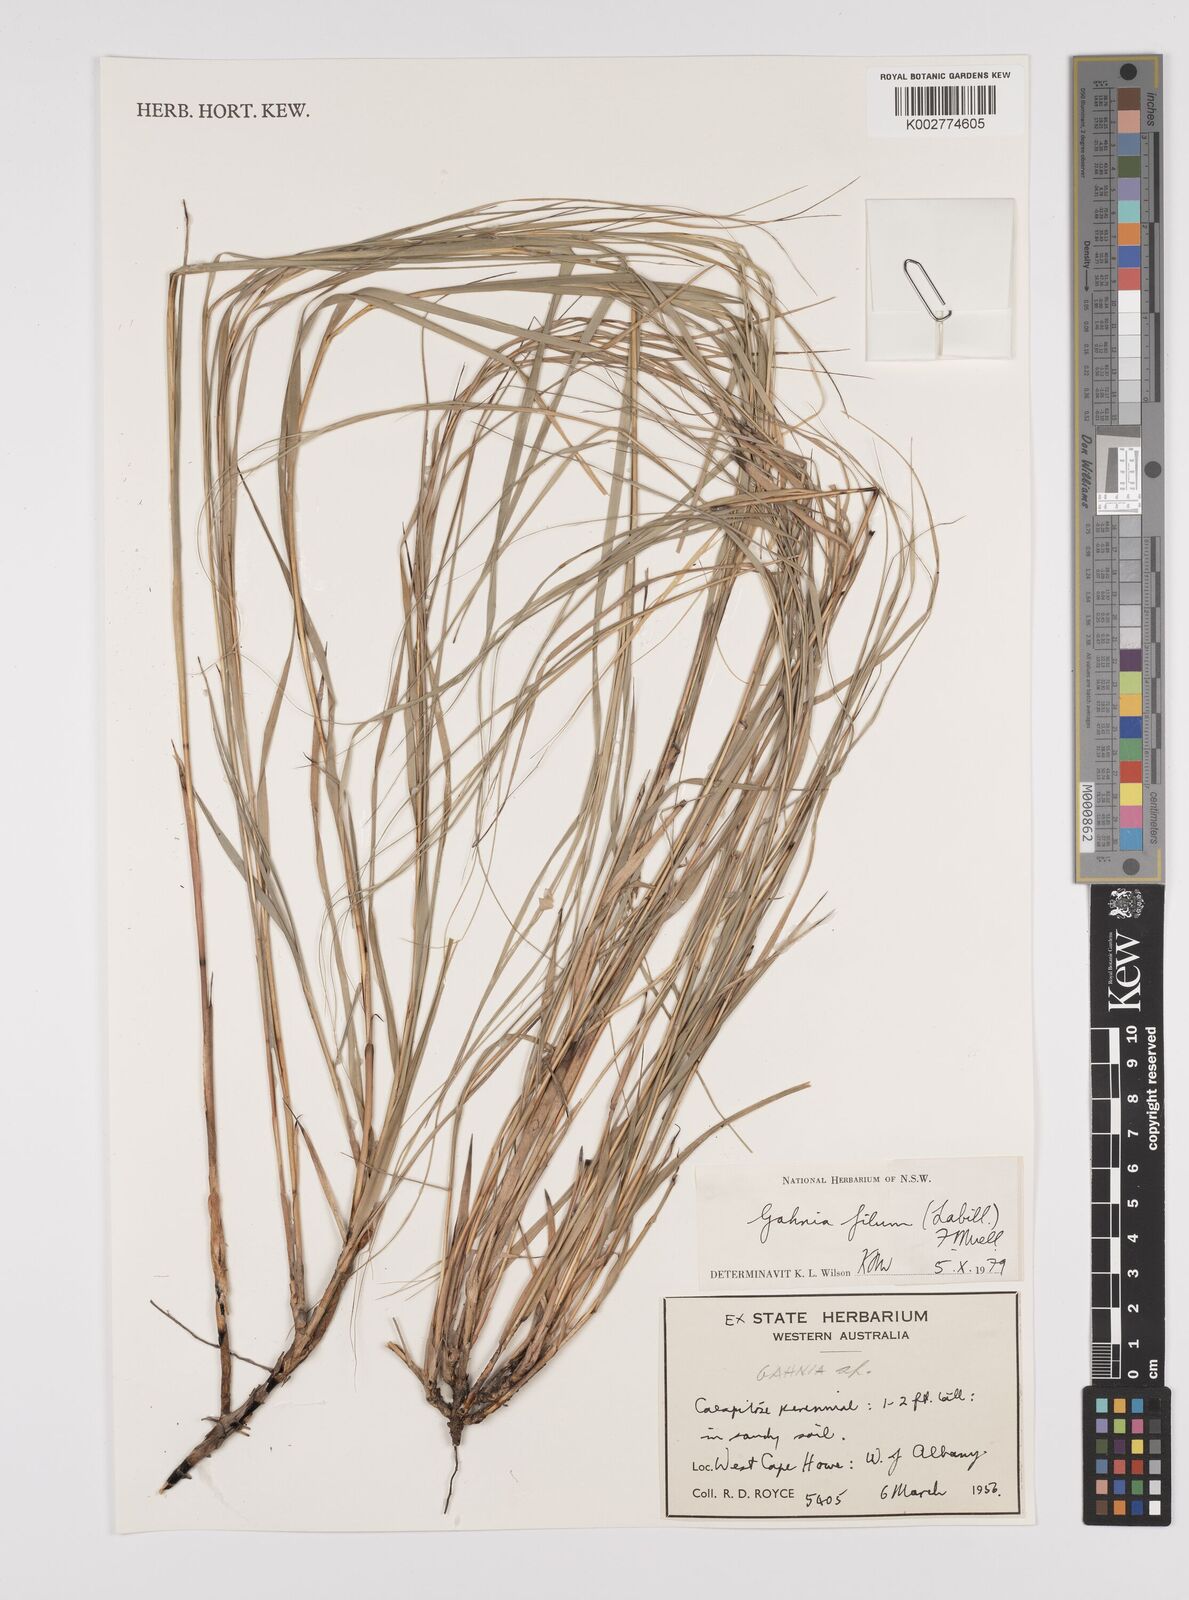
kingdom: Plantae
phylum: Tracheophyta
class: Liliopsida
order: Poales
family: Cyperaceae
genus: Gahnia
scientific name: Gahnia filum
